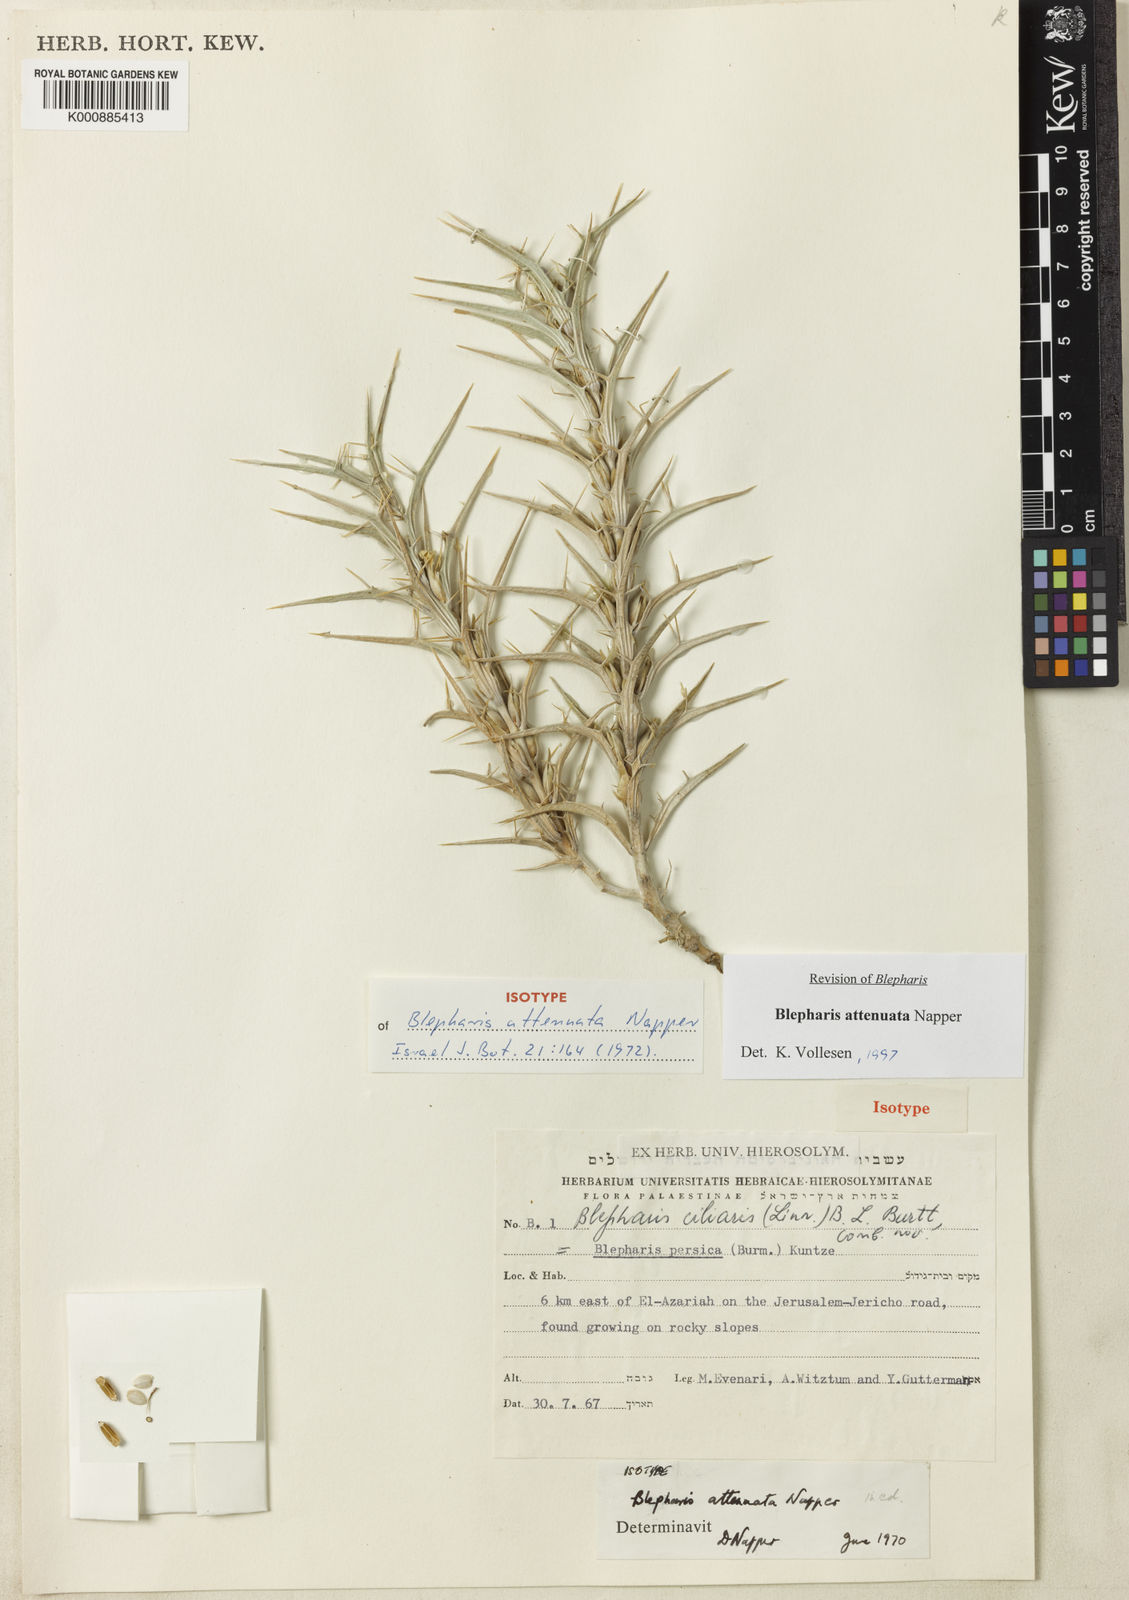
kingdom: Plantae
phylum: Tracheophyta
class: Magnoliopsida
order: Lamiales
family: Acanthaceae
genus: Blepharis
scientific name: Blepharis attenuata
